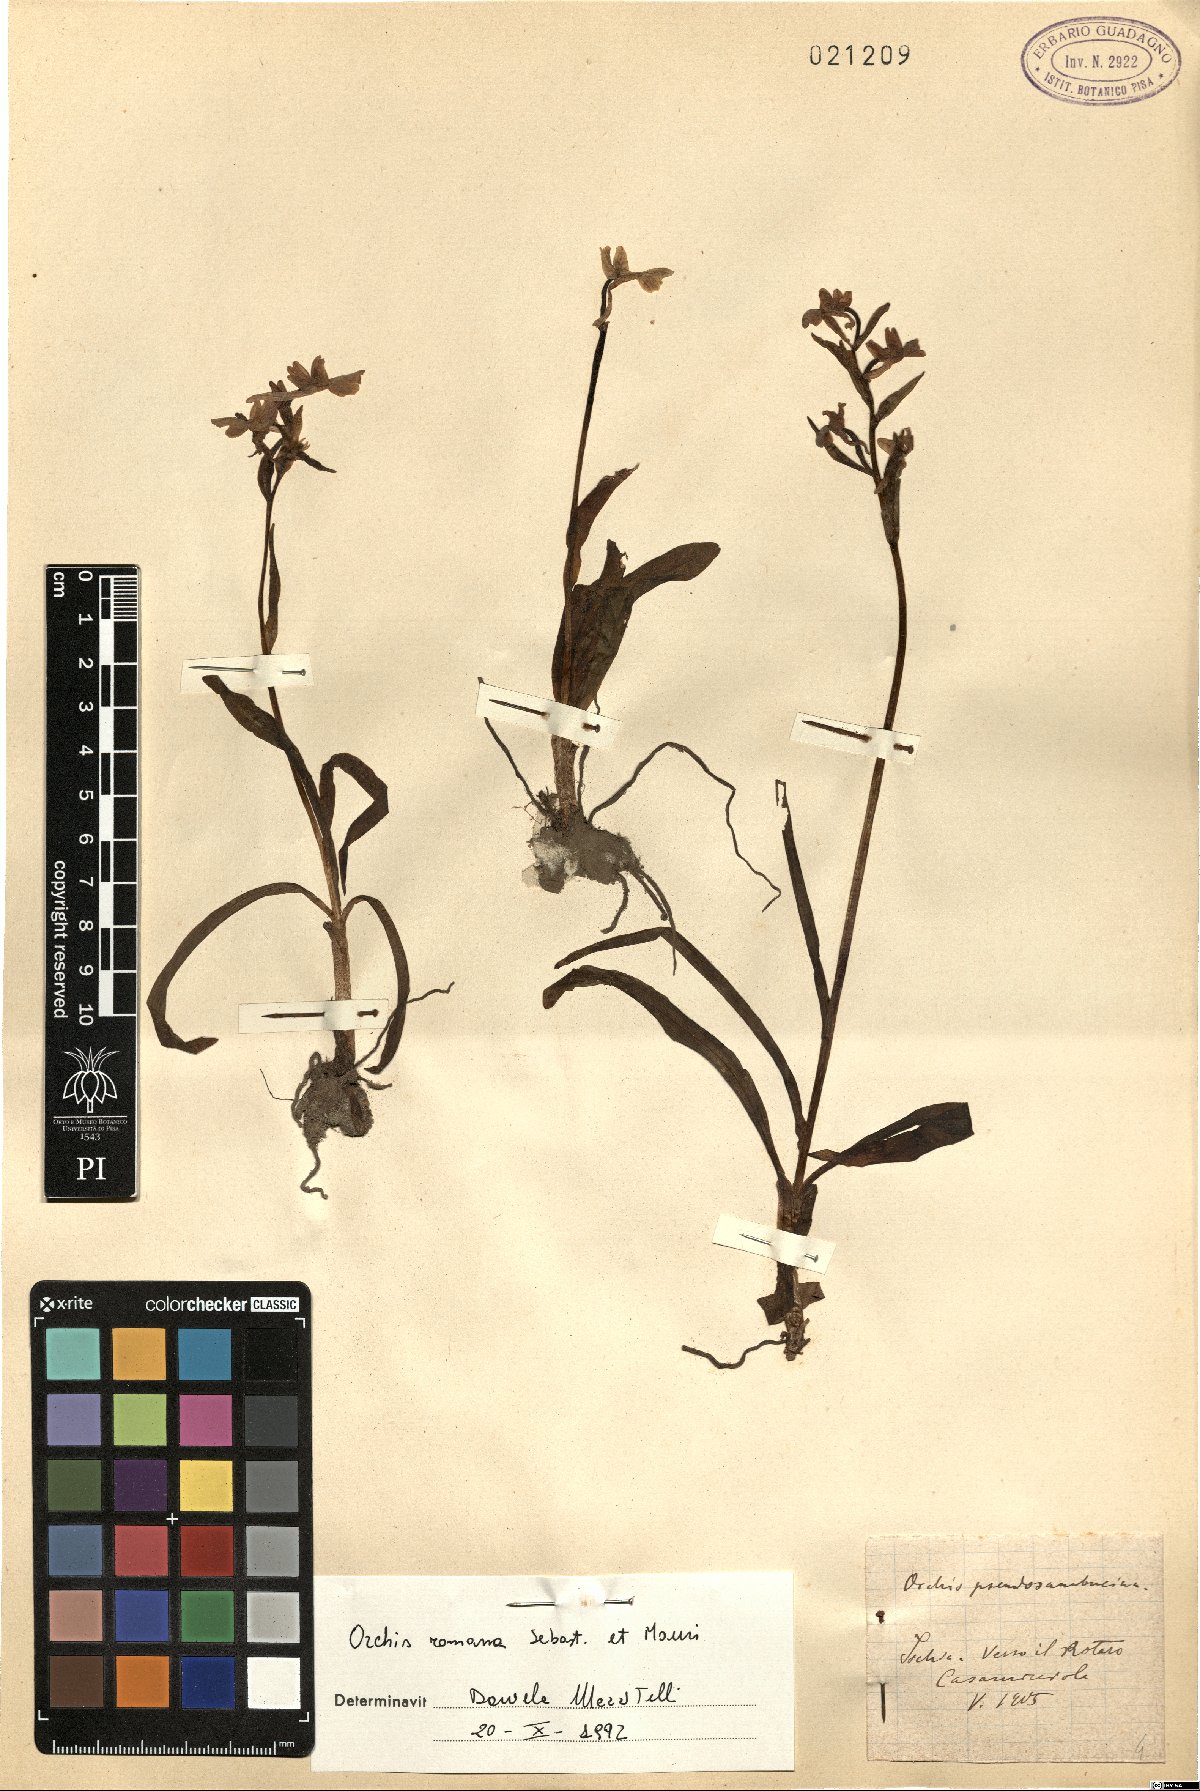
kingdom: Plantae
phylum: Tracheophyta
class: Liliopsida
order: Asparagales
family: Orchidaceae
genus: Dactylorhiza
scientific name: Dactylorhiza romana
